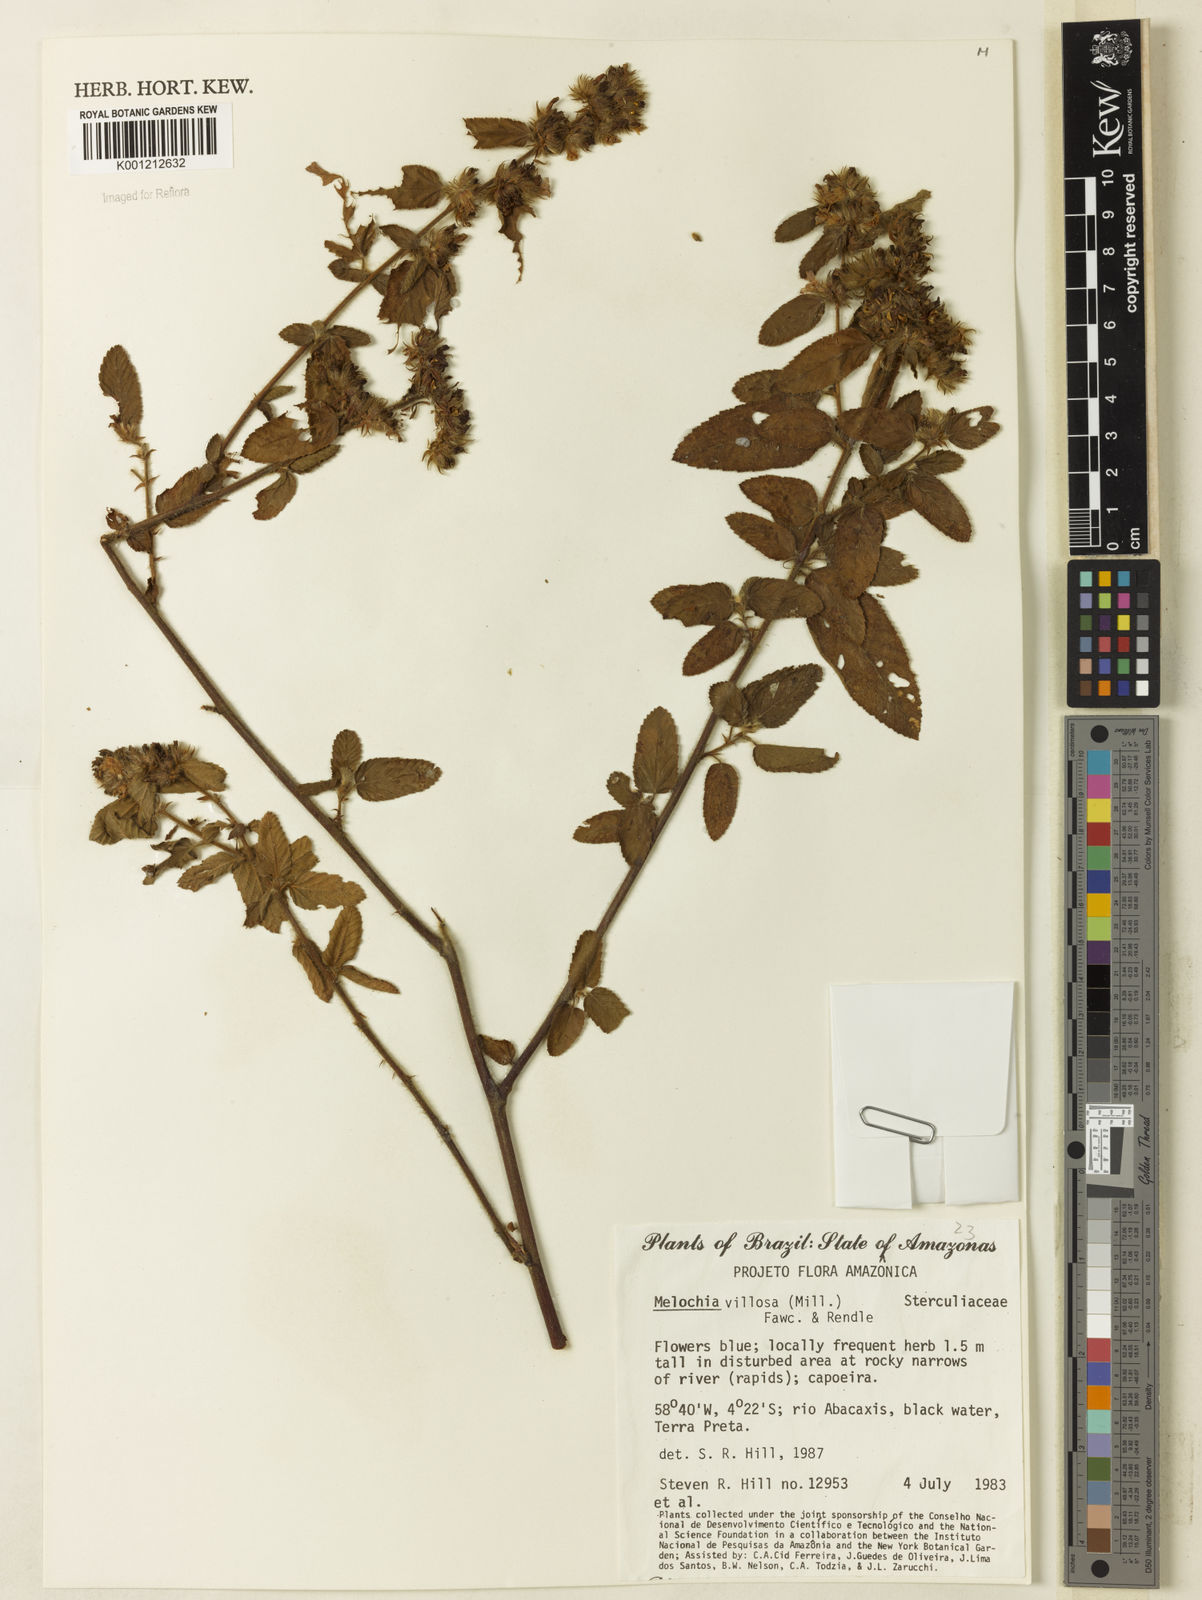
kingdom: Plantae
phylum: Tracheophyta
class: Magnoliopsida
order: Malvales
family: Malvaceae
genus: Melochia
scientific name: Melochia spicata
